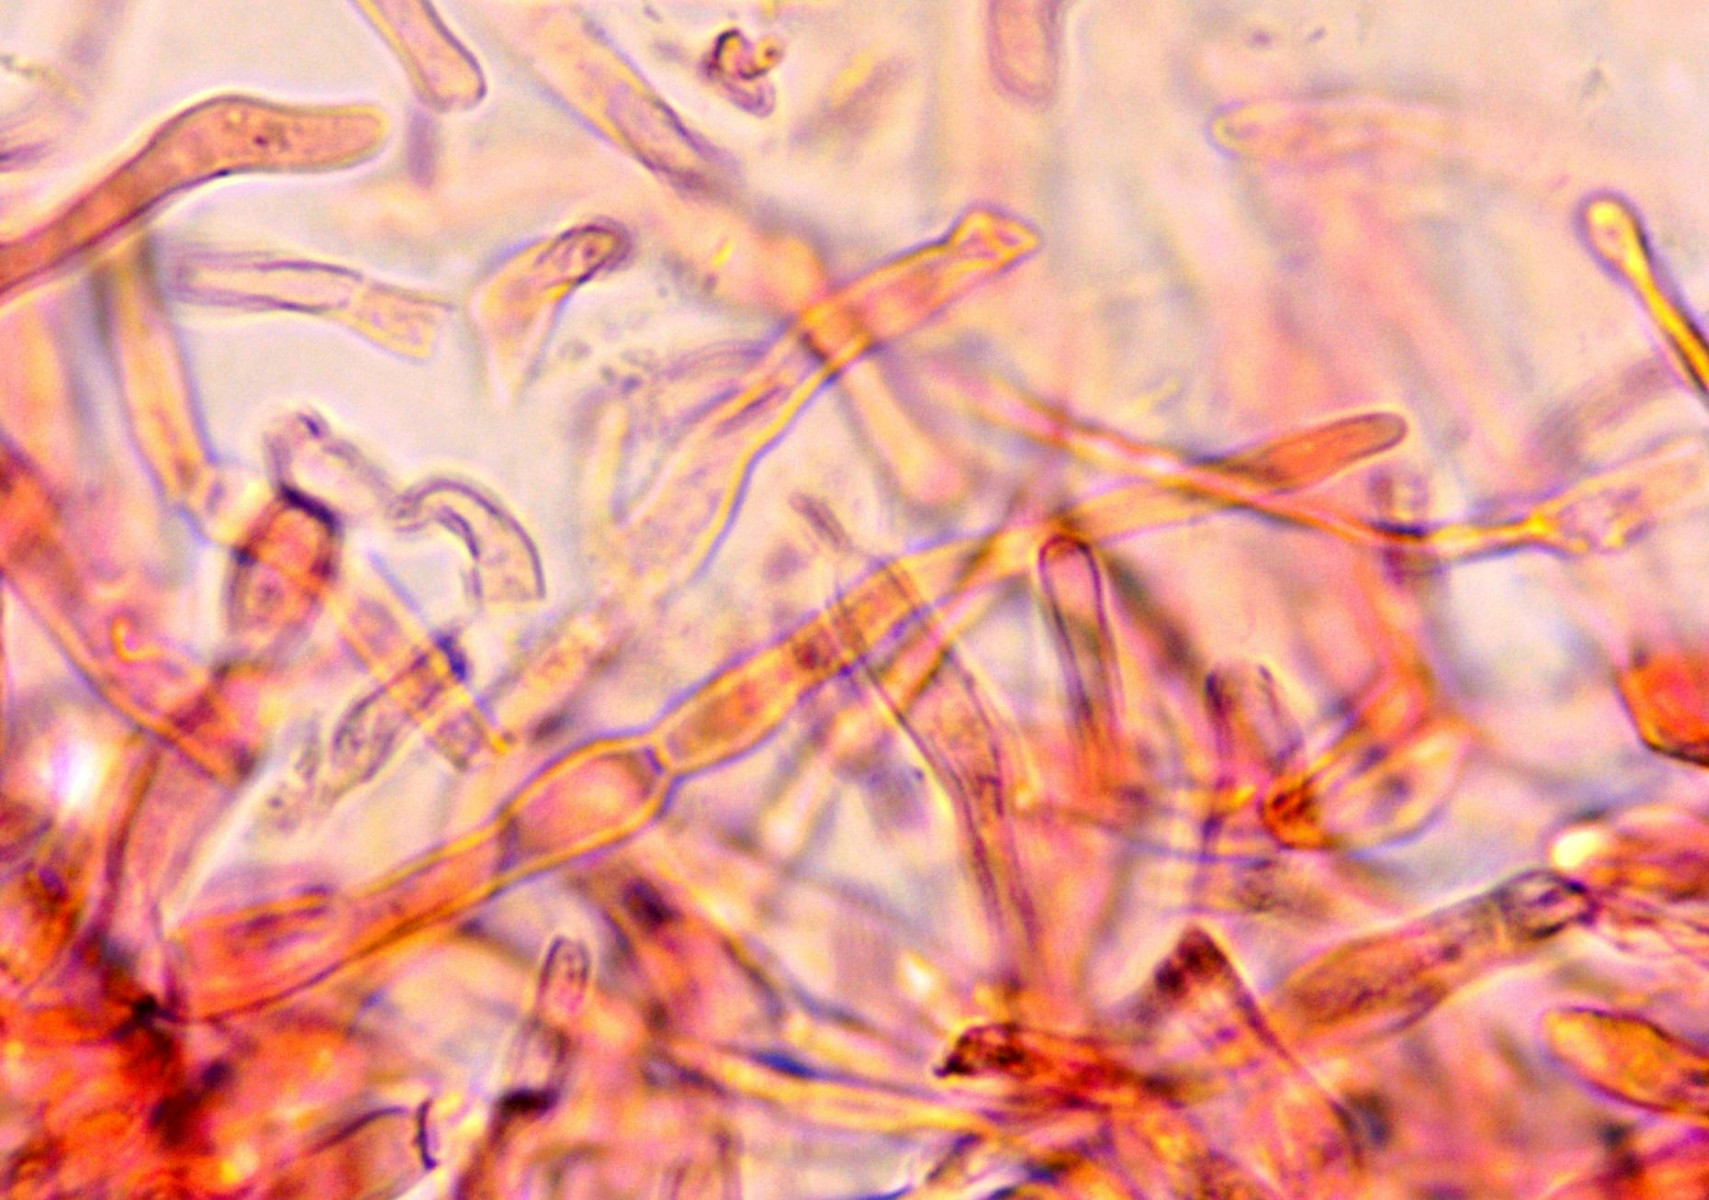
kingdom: Fungi
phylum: Basidiomycota
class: Agaricomycetes
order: Russulales
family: Russulaceae
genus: Russula
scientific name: Russula grisea
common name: grålig skørhat
